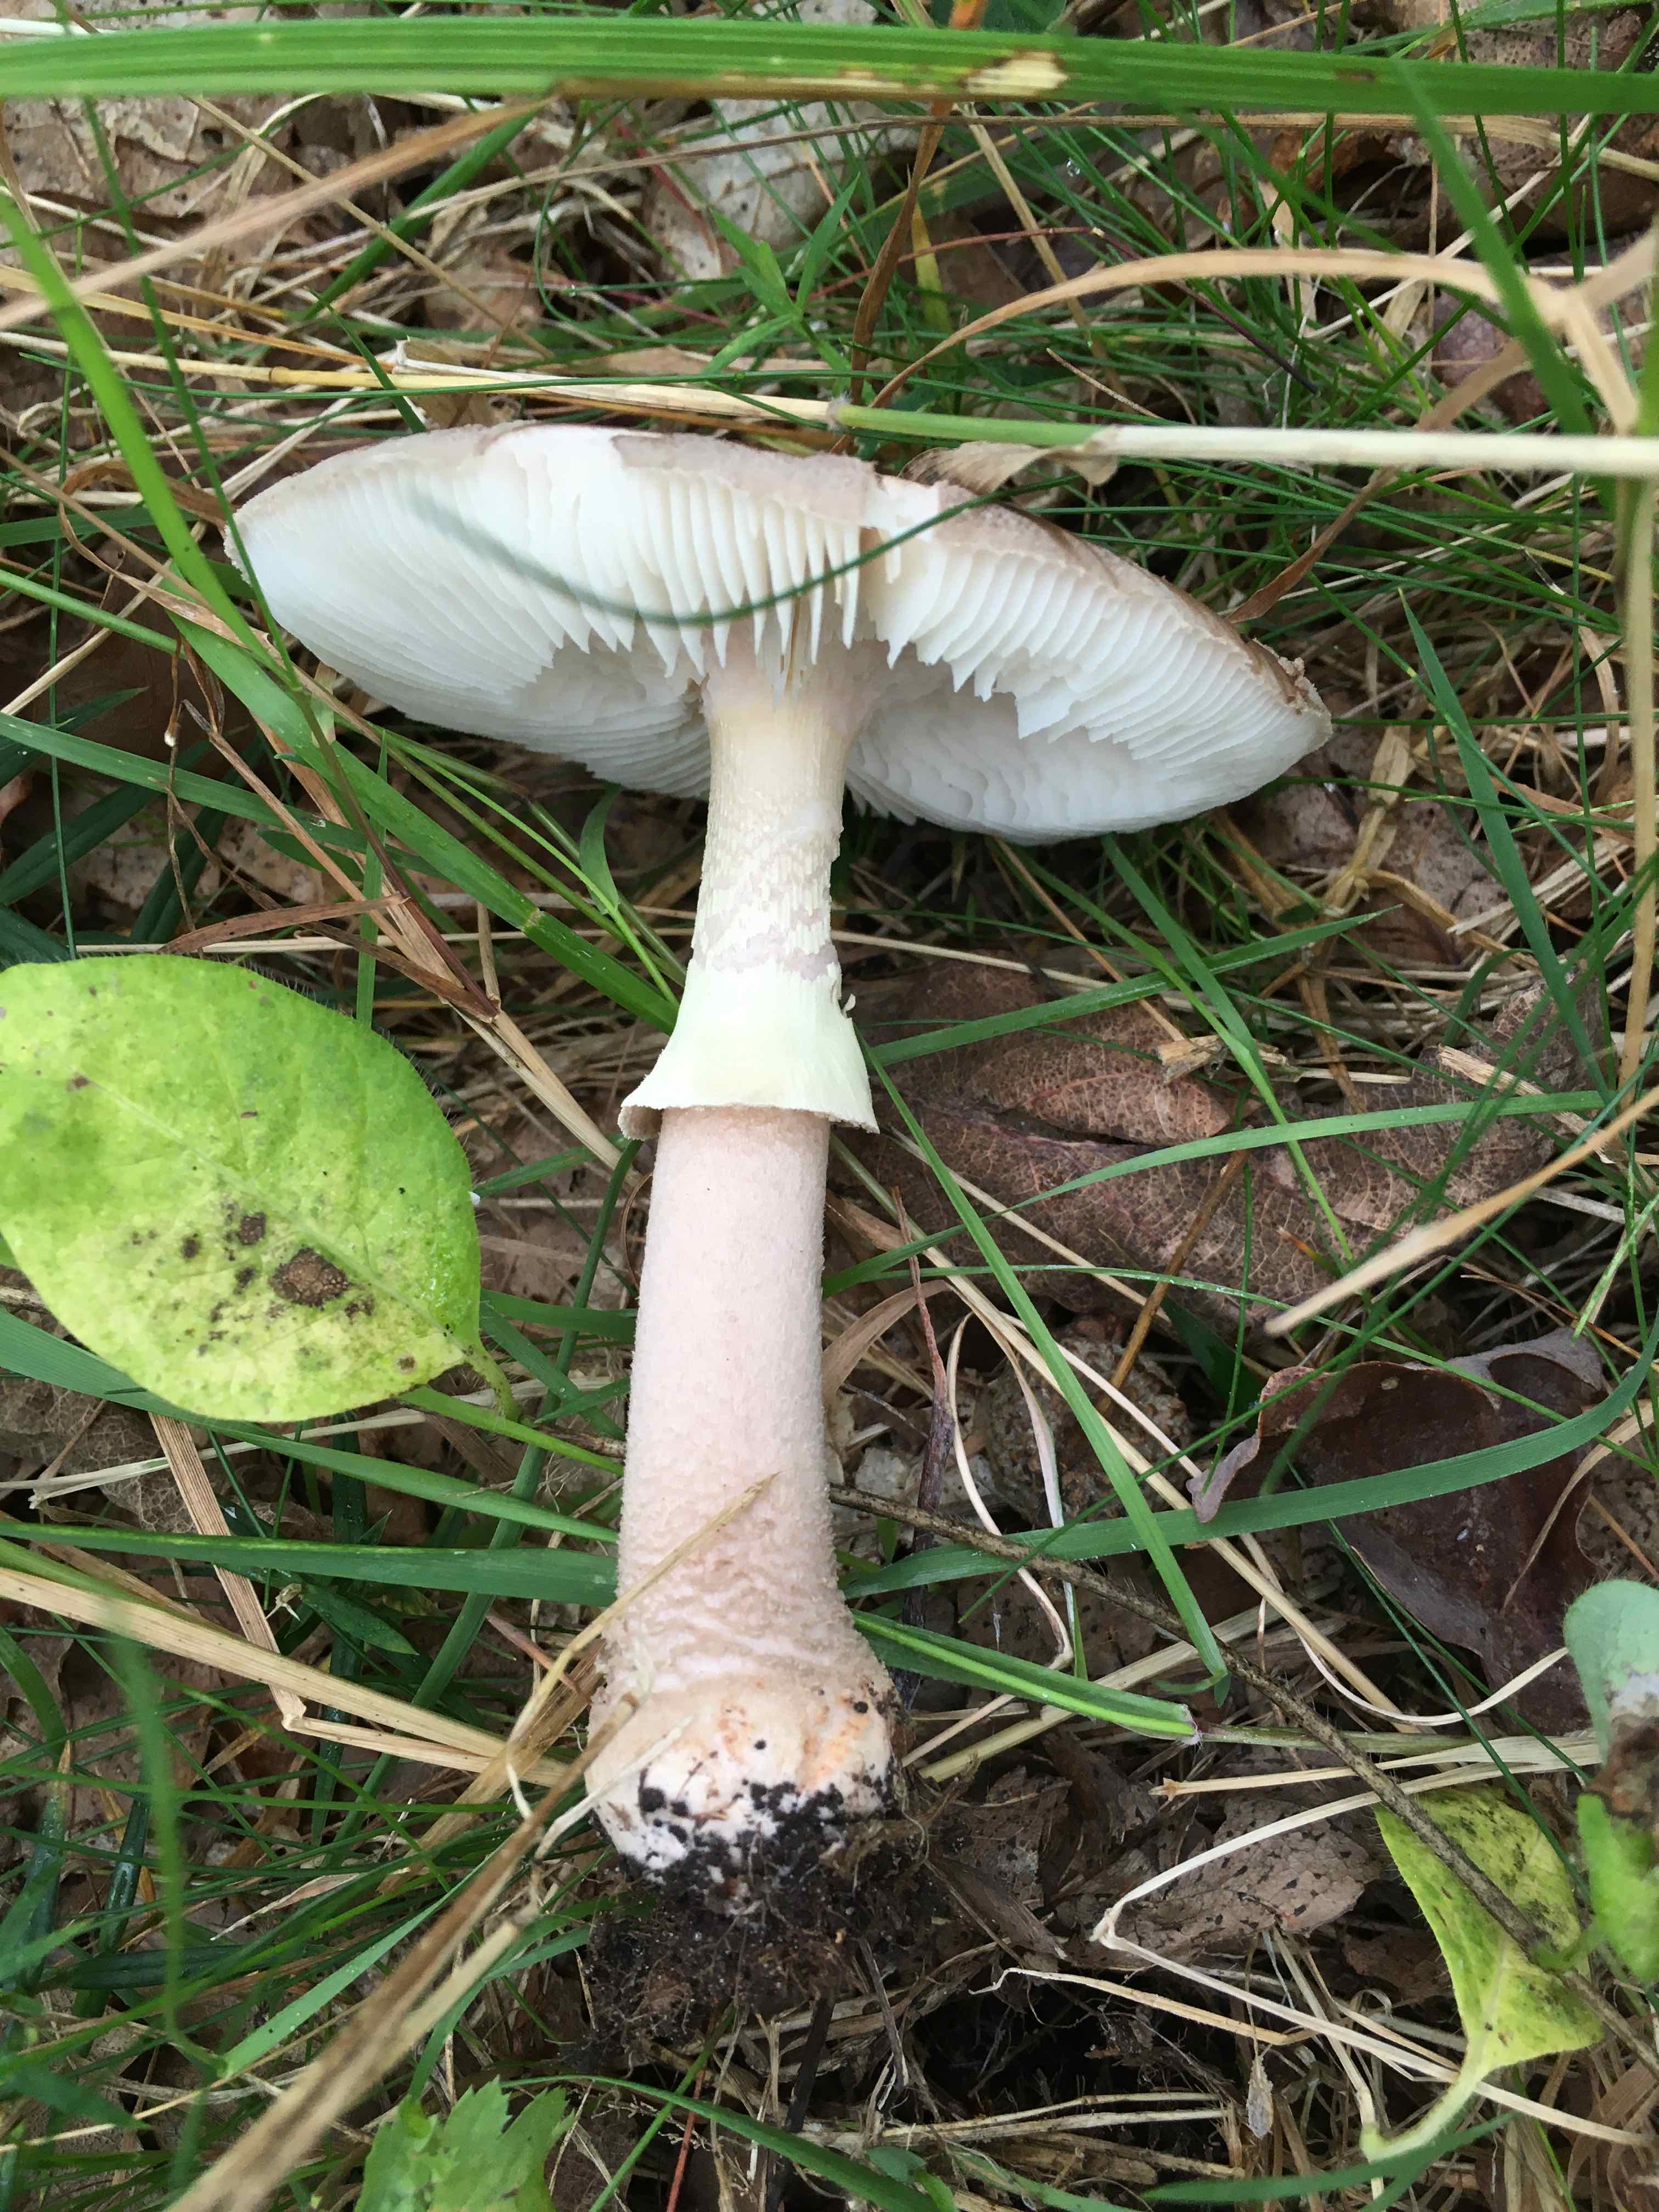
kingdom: Fungi
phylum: Basidiomycota
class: Agaricomycetes
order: Agaricales
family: Amanitaceae
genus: Amanita
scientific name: Amanita rubescens
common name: Blusher
